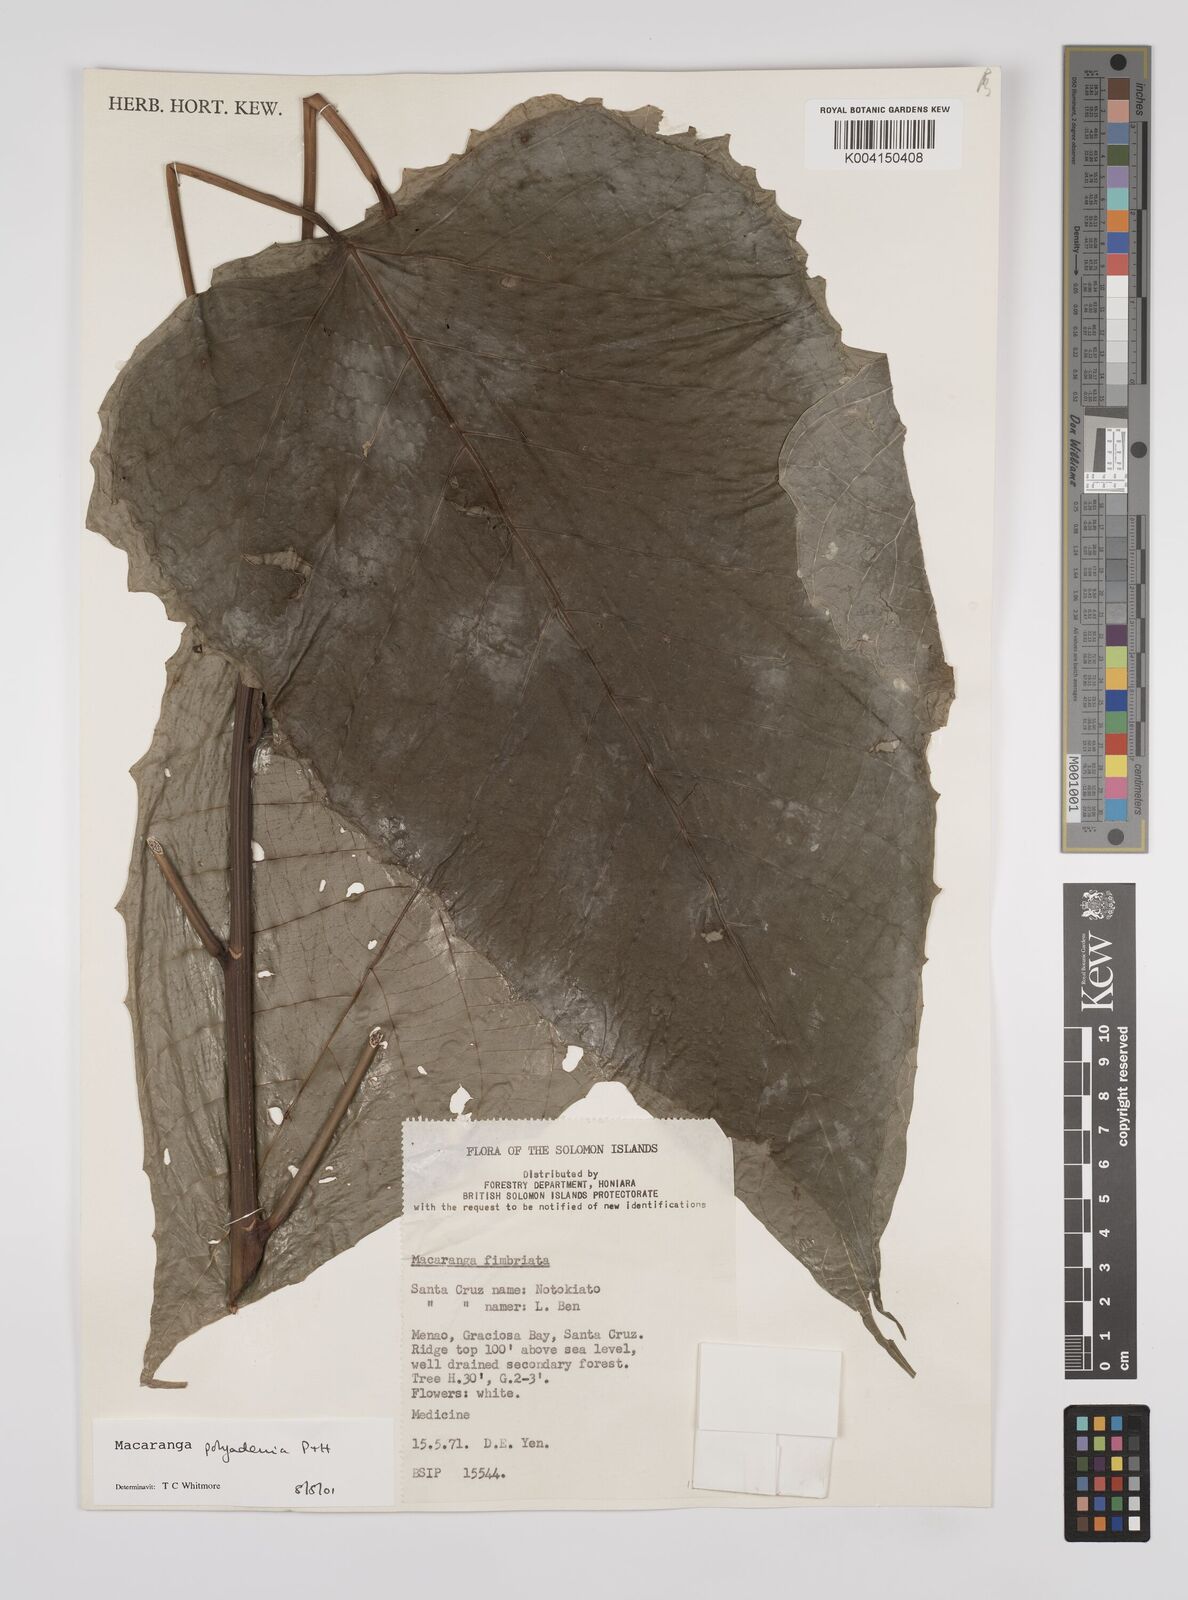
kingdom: Plantae
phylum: Tracheophyta
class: Magnoliopsida
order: Malpighiales
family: Euphorbiaceae
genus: Macaranga
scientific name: Macaranga polyadenia
